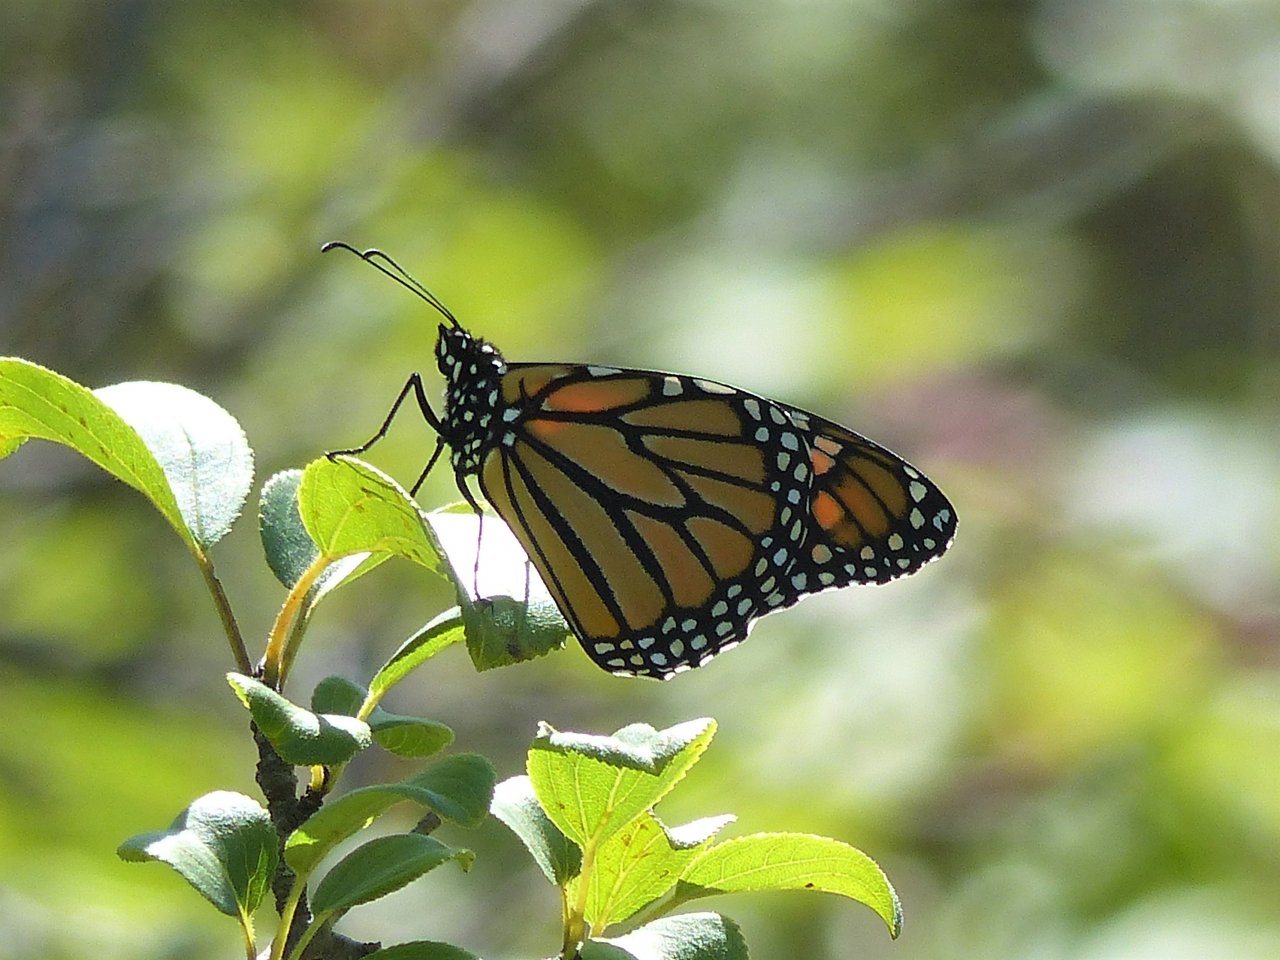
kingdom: Animalia
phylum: Arthropoda
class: Insecta
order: Lepidoptera
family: Nymphalidae
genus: Danaus
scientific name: Danaus plexippus
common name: Monarch
